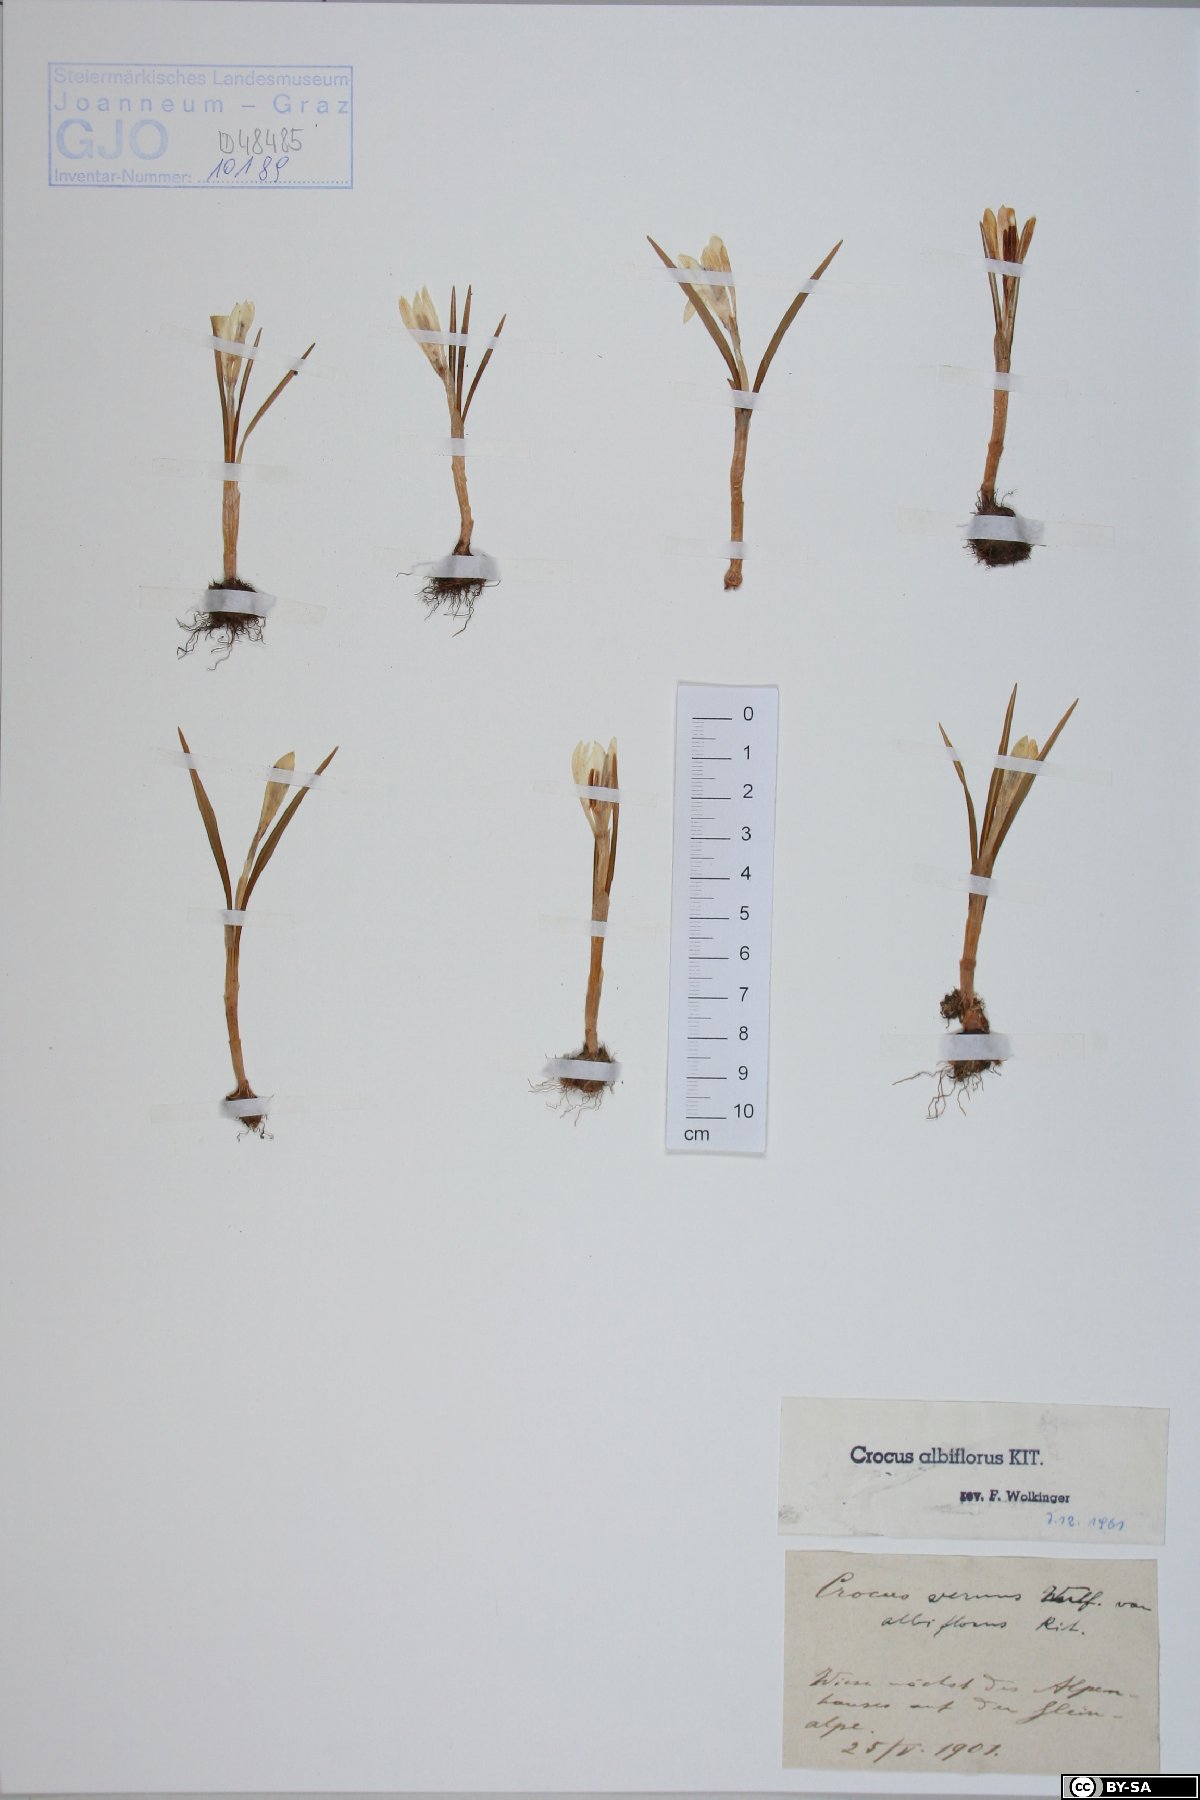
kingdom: Plantae
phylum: Tracheophyta
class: Liliopsida
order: Asparagales
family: Iridaceae
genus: Crocus
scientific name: Crocus vernus
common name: Spring crocus
